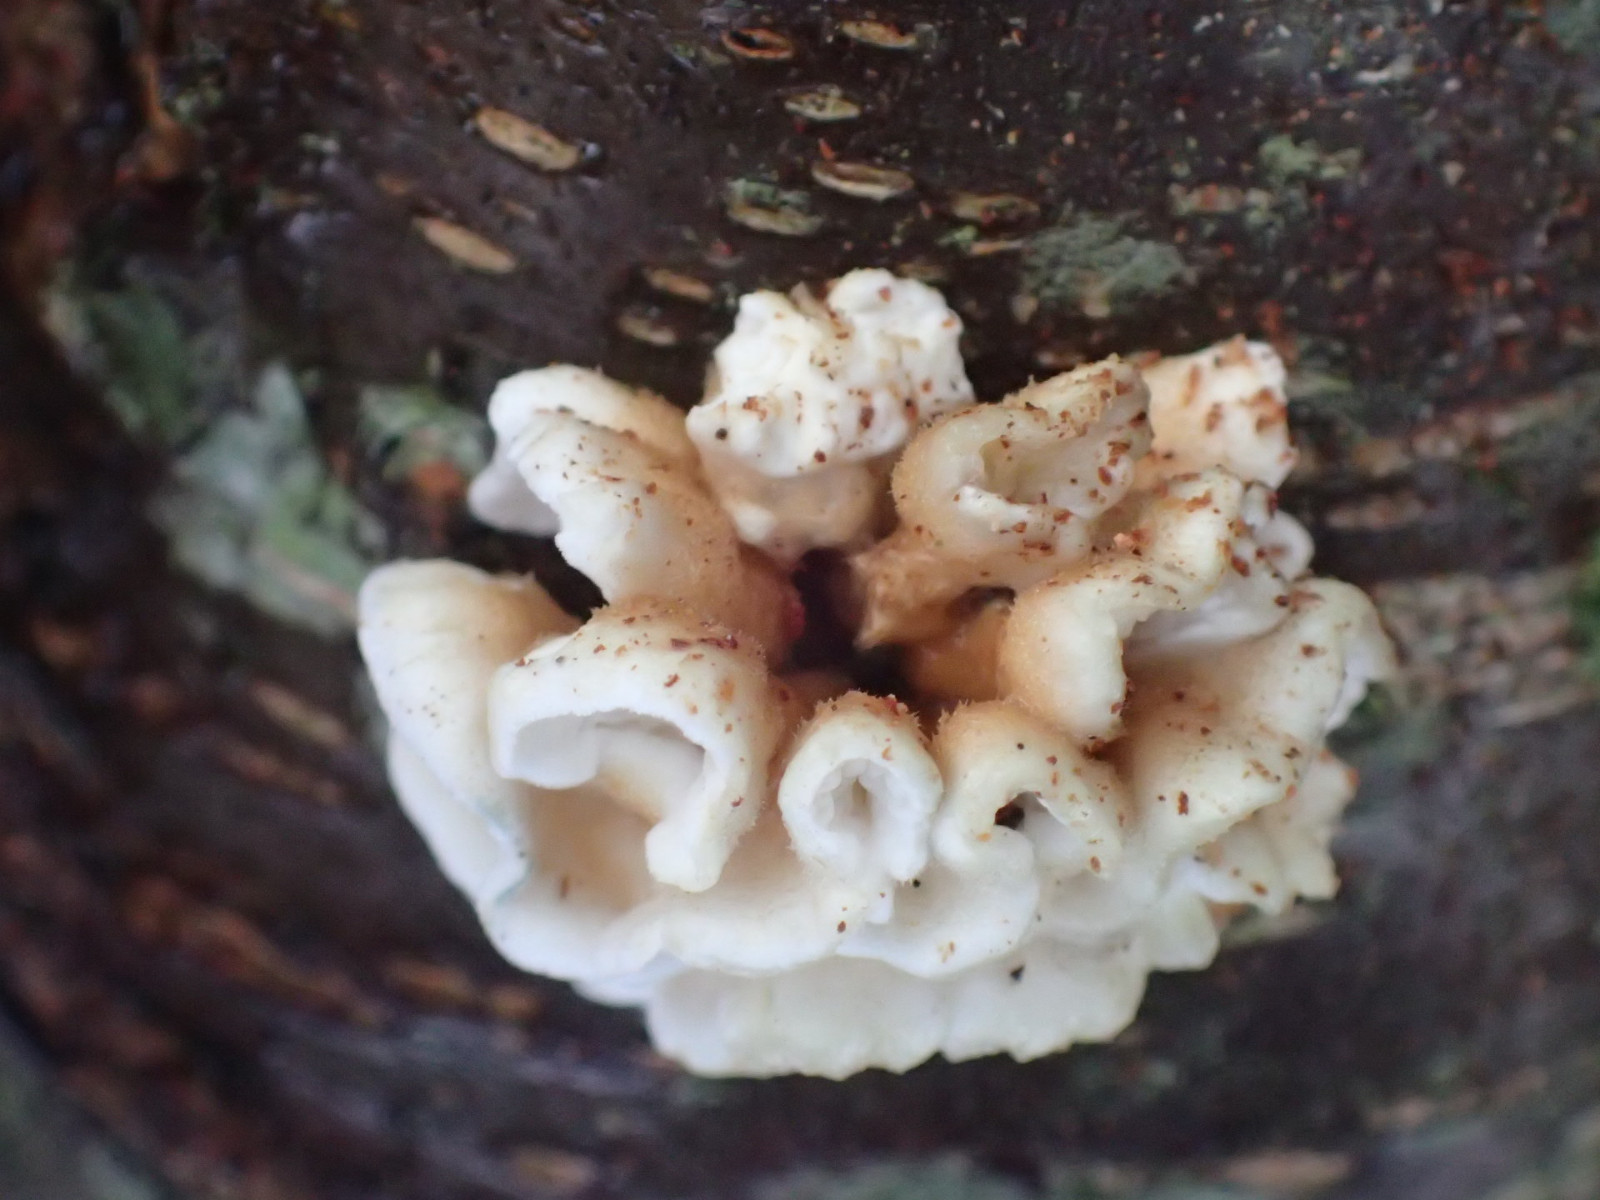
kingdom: Fungi
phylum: Basidiomycota
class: Agaricomycetes
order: Amylocorticiales
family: Amylocorticiaceae
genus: Plicaturopsis
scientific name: Plicaturopsis crispa
